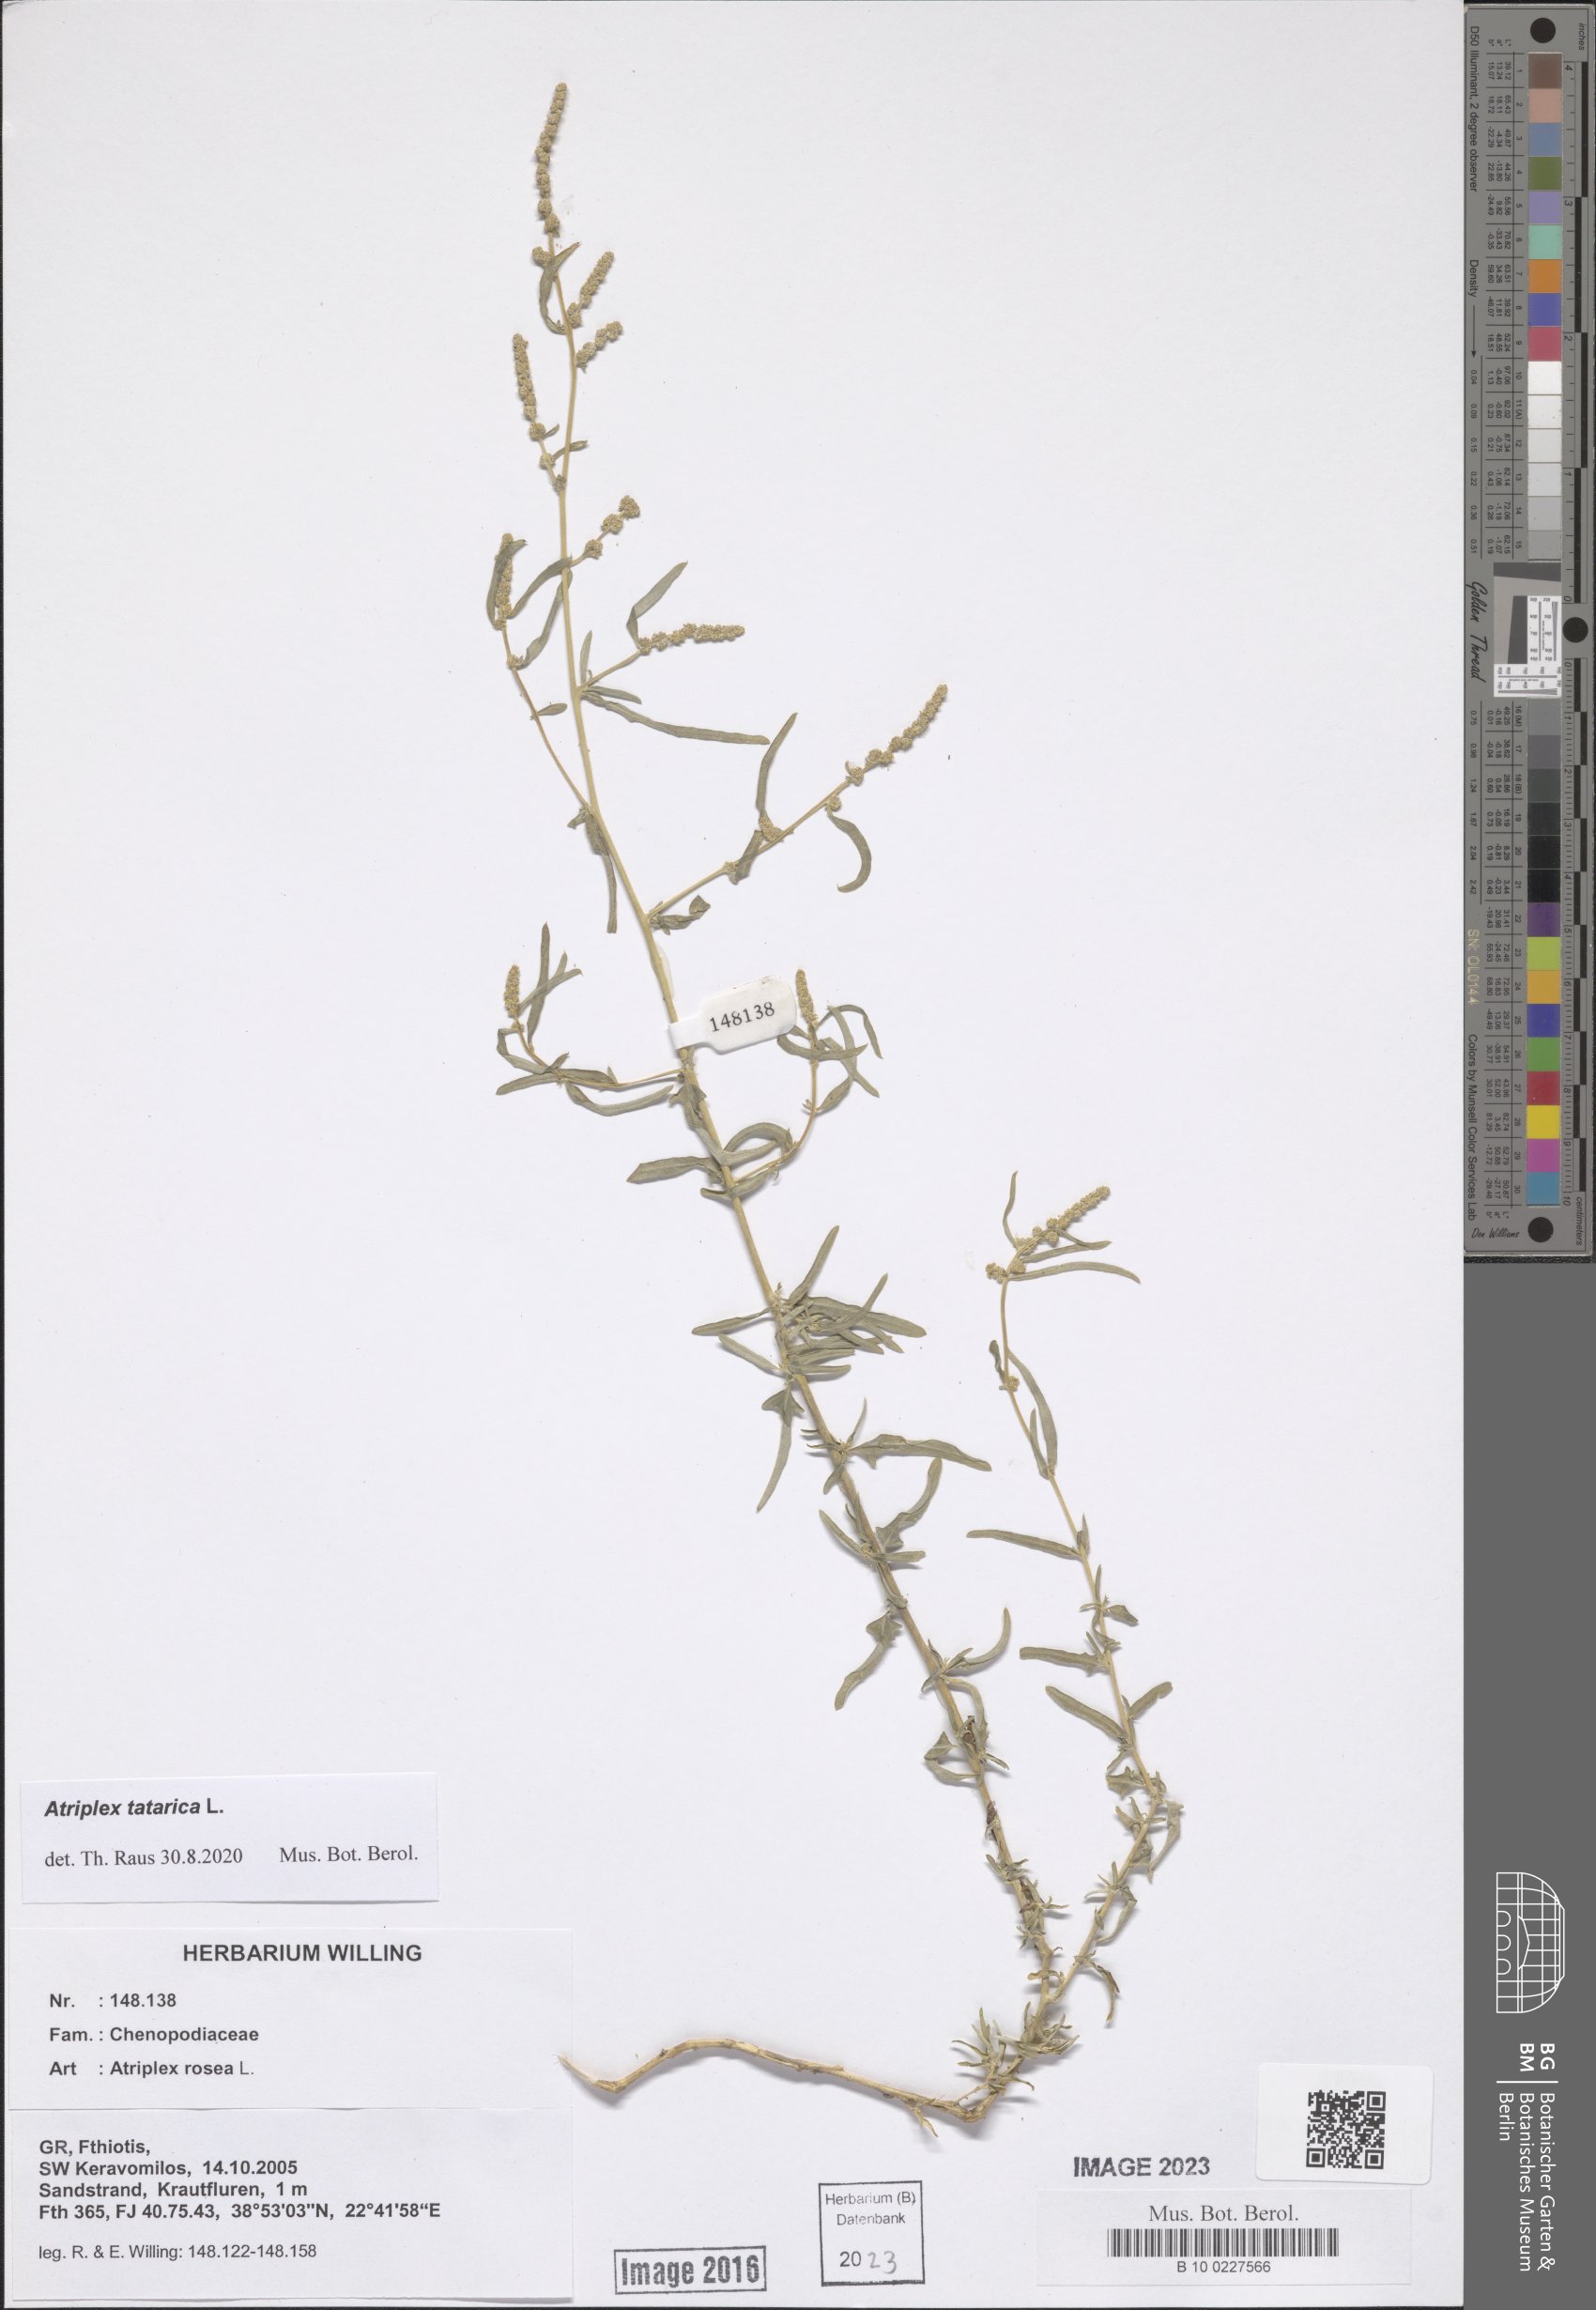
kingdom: Plantae
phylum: Tracheophyta
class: Magnoliopsida
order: Caryophyllales
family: Amaranthaceae
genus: Atriplex
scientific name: Atriplex tatarica
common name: Tatarian orache
